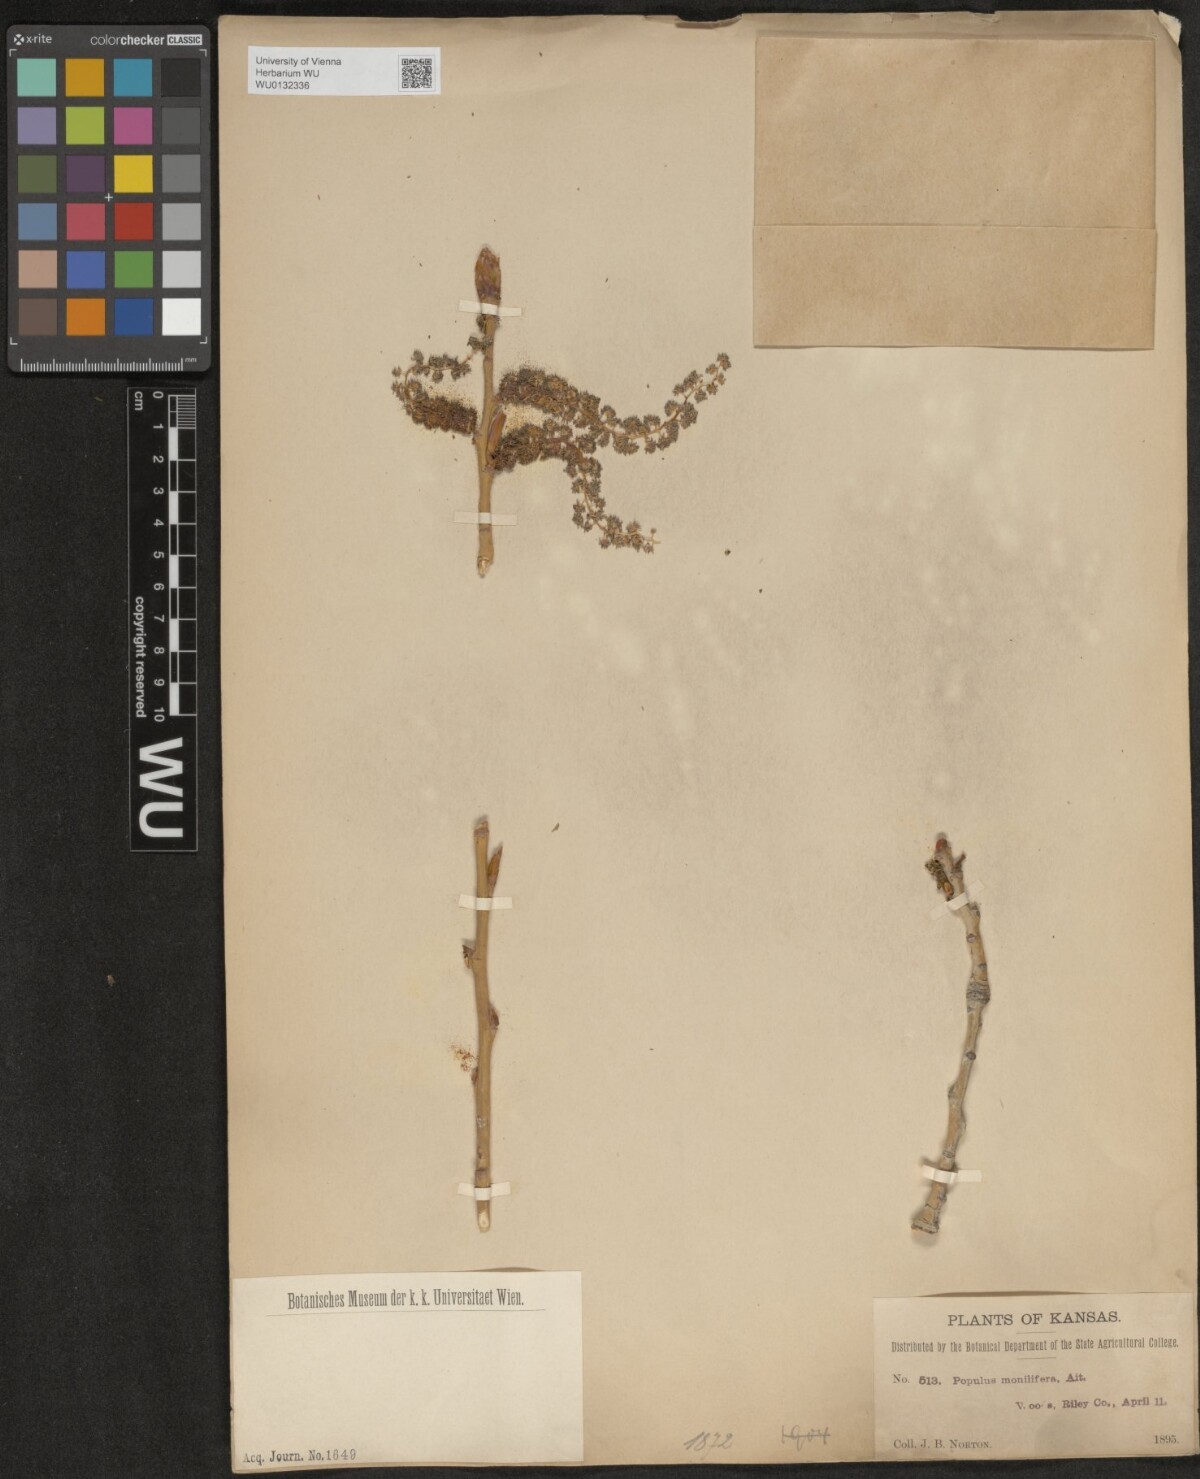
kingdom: Plantae
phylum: Tracheophyta
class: Magnoliopsida
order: Malpighiales
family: Salicaceae
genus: Populus
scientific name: Populus deltoides
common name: Eastern cottonwood
